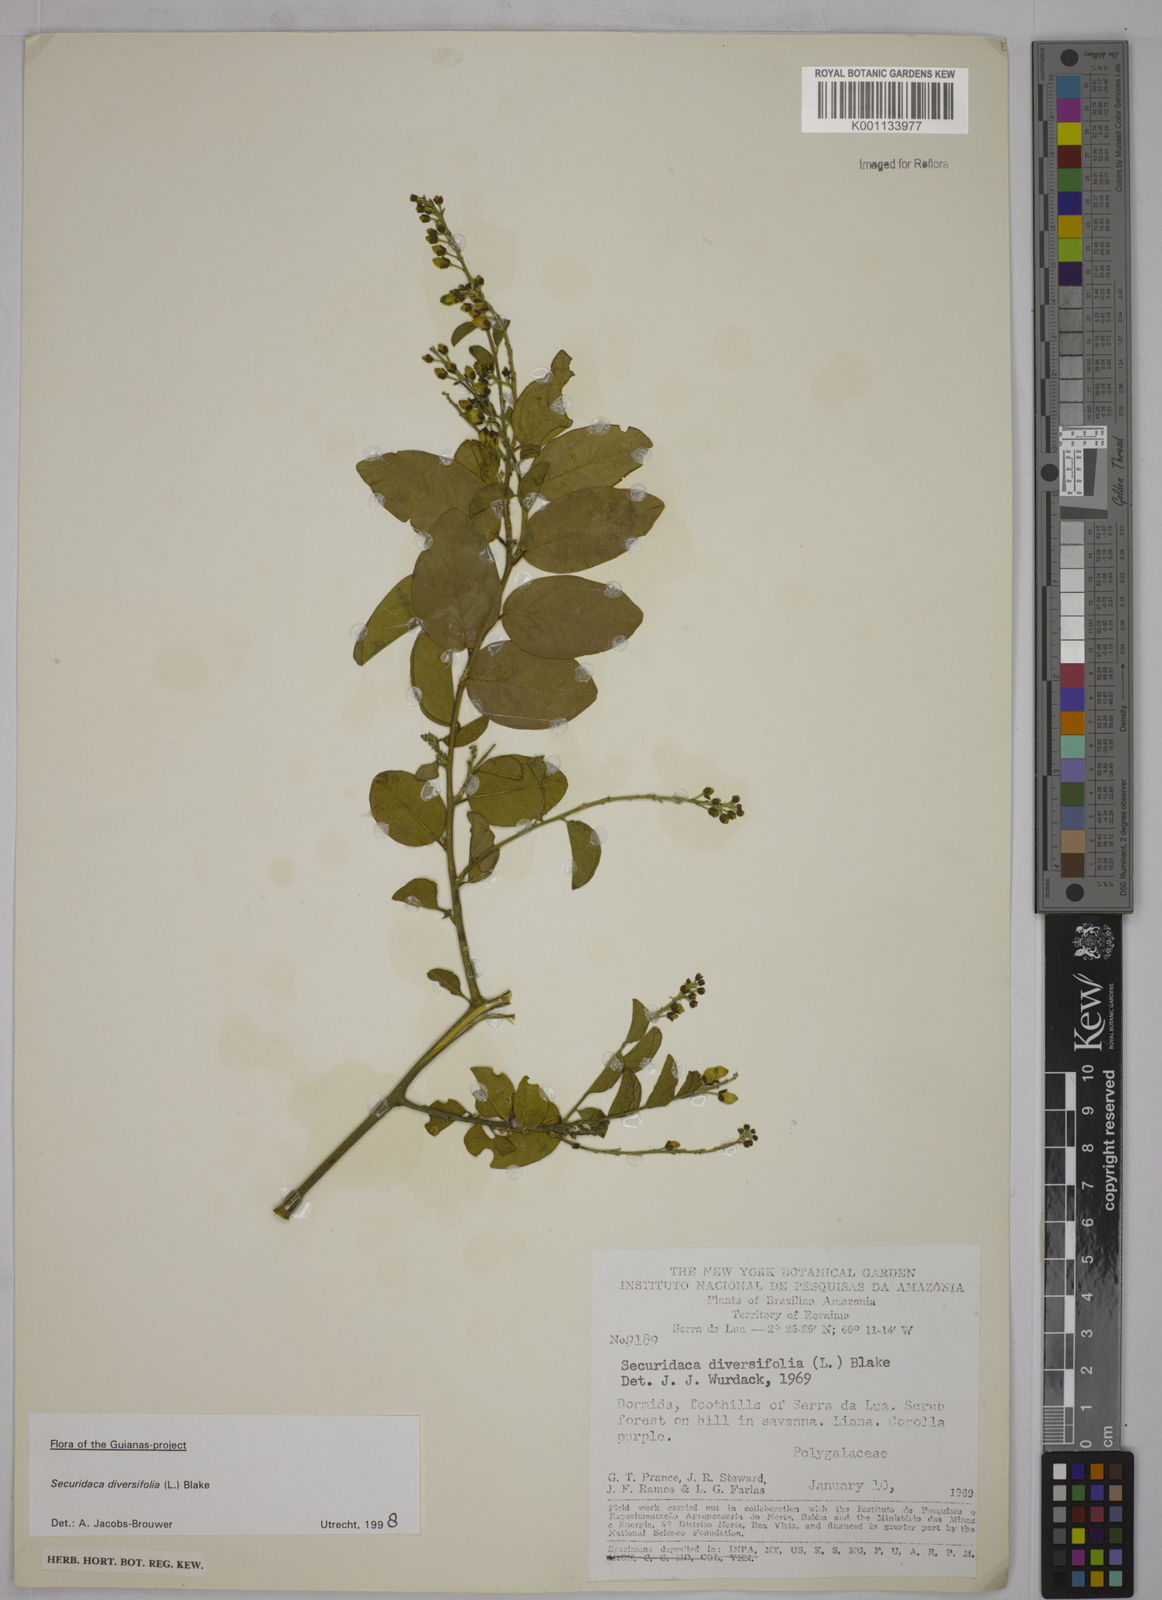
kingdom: Plantae
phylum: Tracheophyta
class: Magnoliopsida
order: Fabales
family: Polygalaceae
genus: Securidaca
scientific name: Securidaca diversifolia
